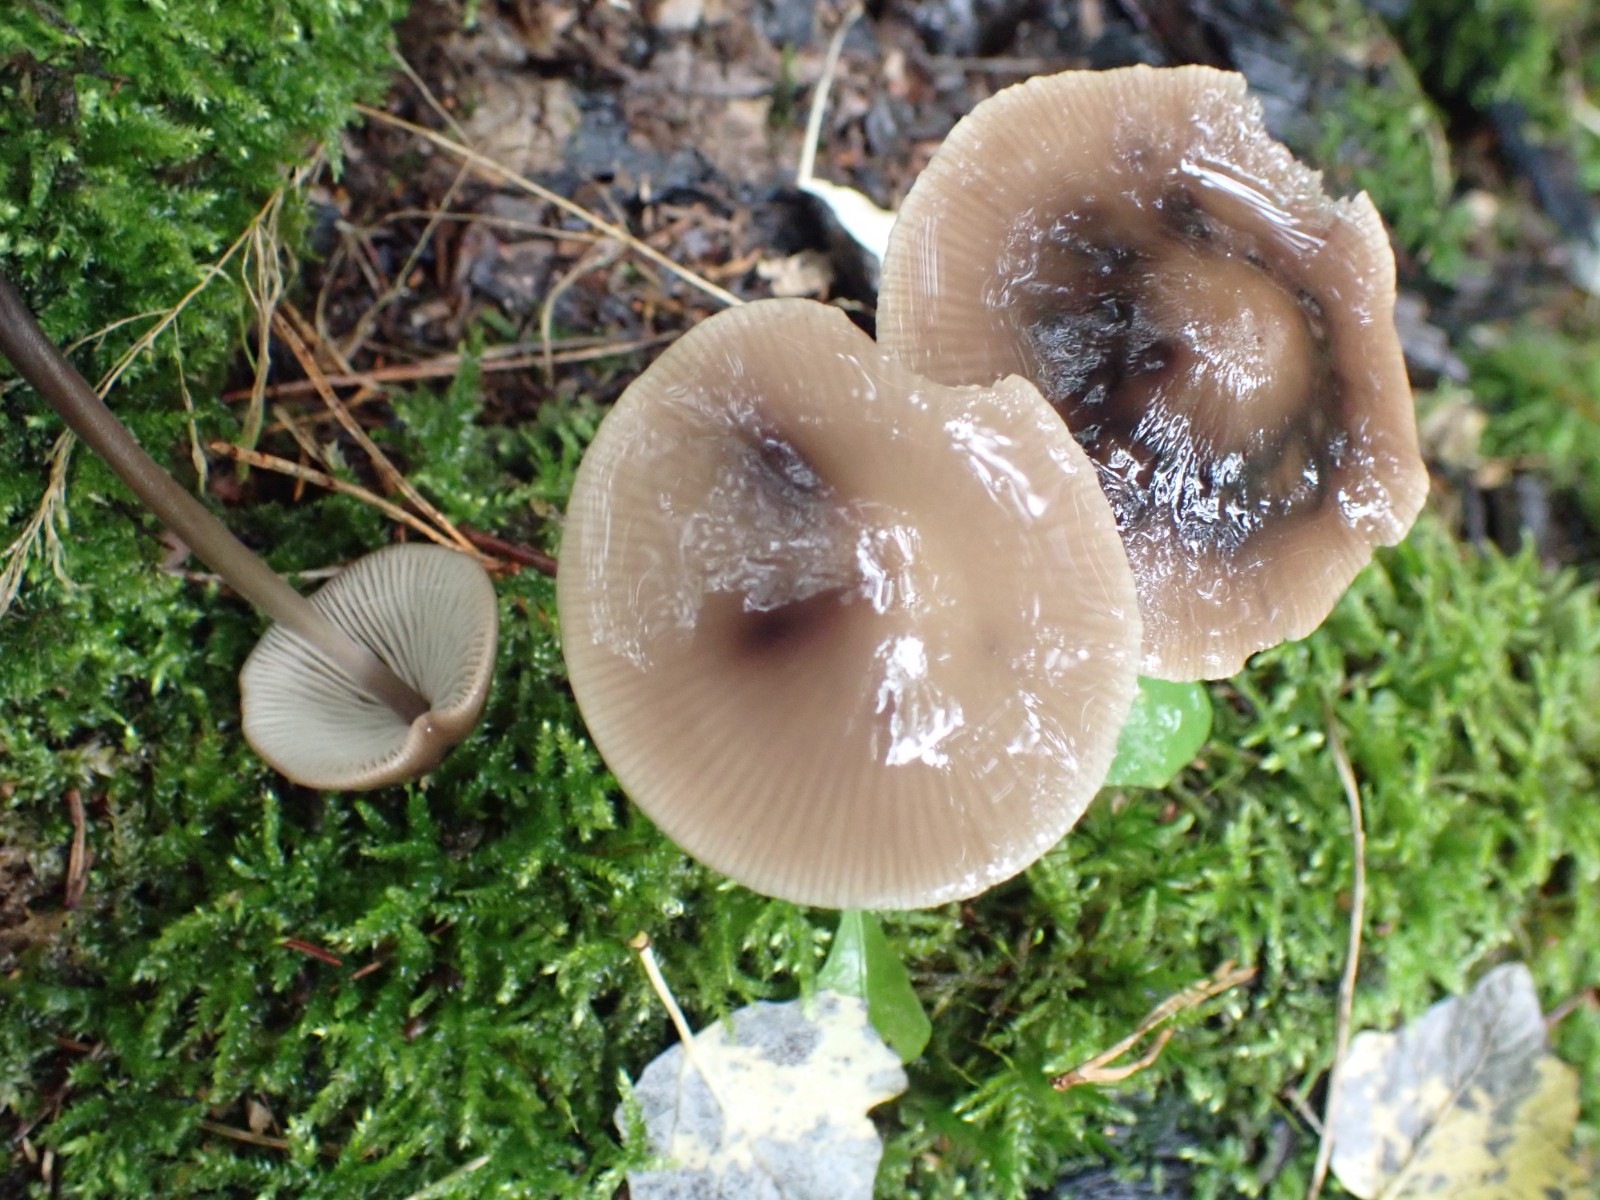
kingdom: Fungi
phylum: Basidiomycota
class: Agaricomycetes
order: Agaricales
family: Omphalotaceae
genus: Mycetinis
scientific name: Mycetinis alliaceus
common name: stor løghat
